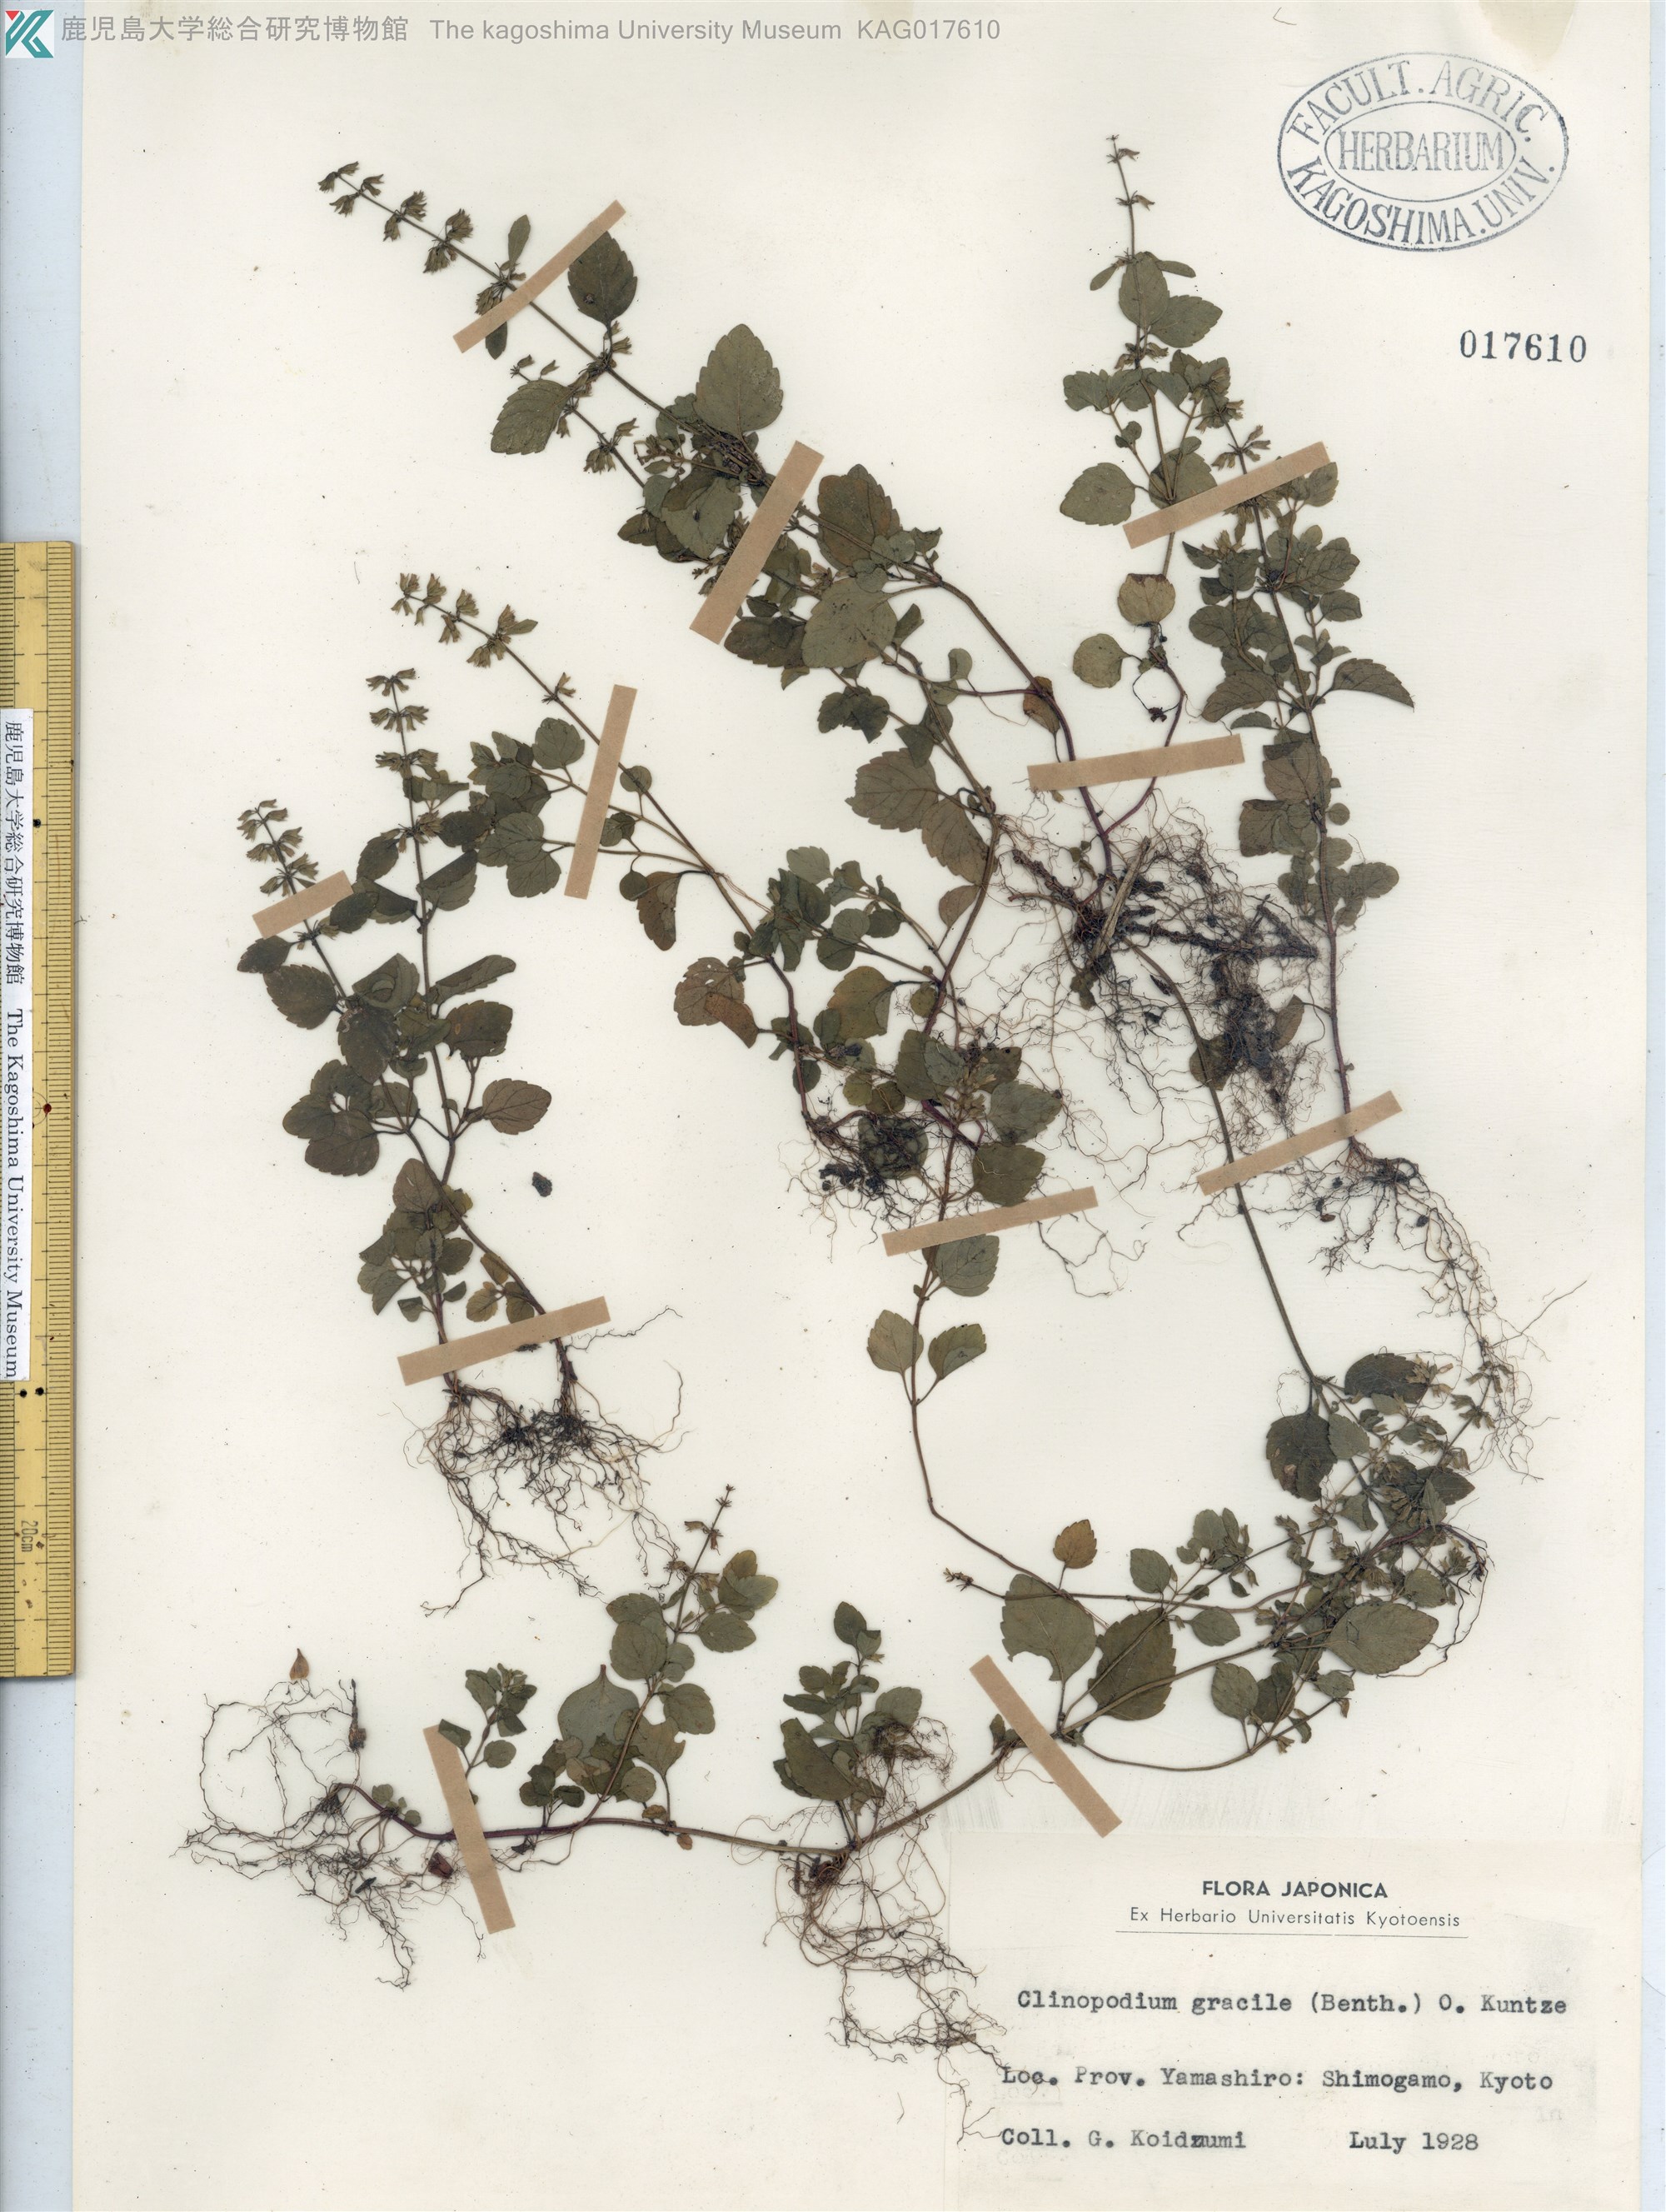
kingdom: Plantae
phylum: Tracheophyta
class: Magnoliopsida
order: Lamiales
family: Lamiaceae
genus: Clinopodium
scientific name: Clinopodium gracile
